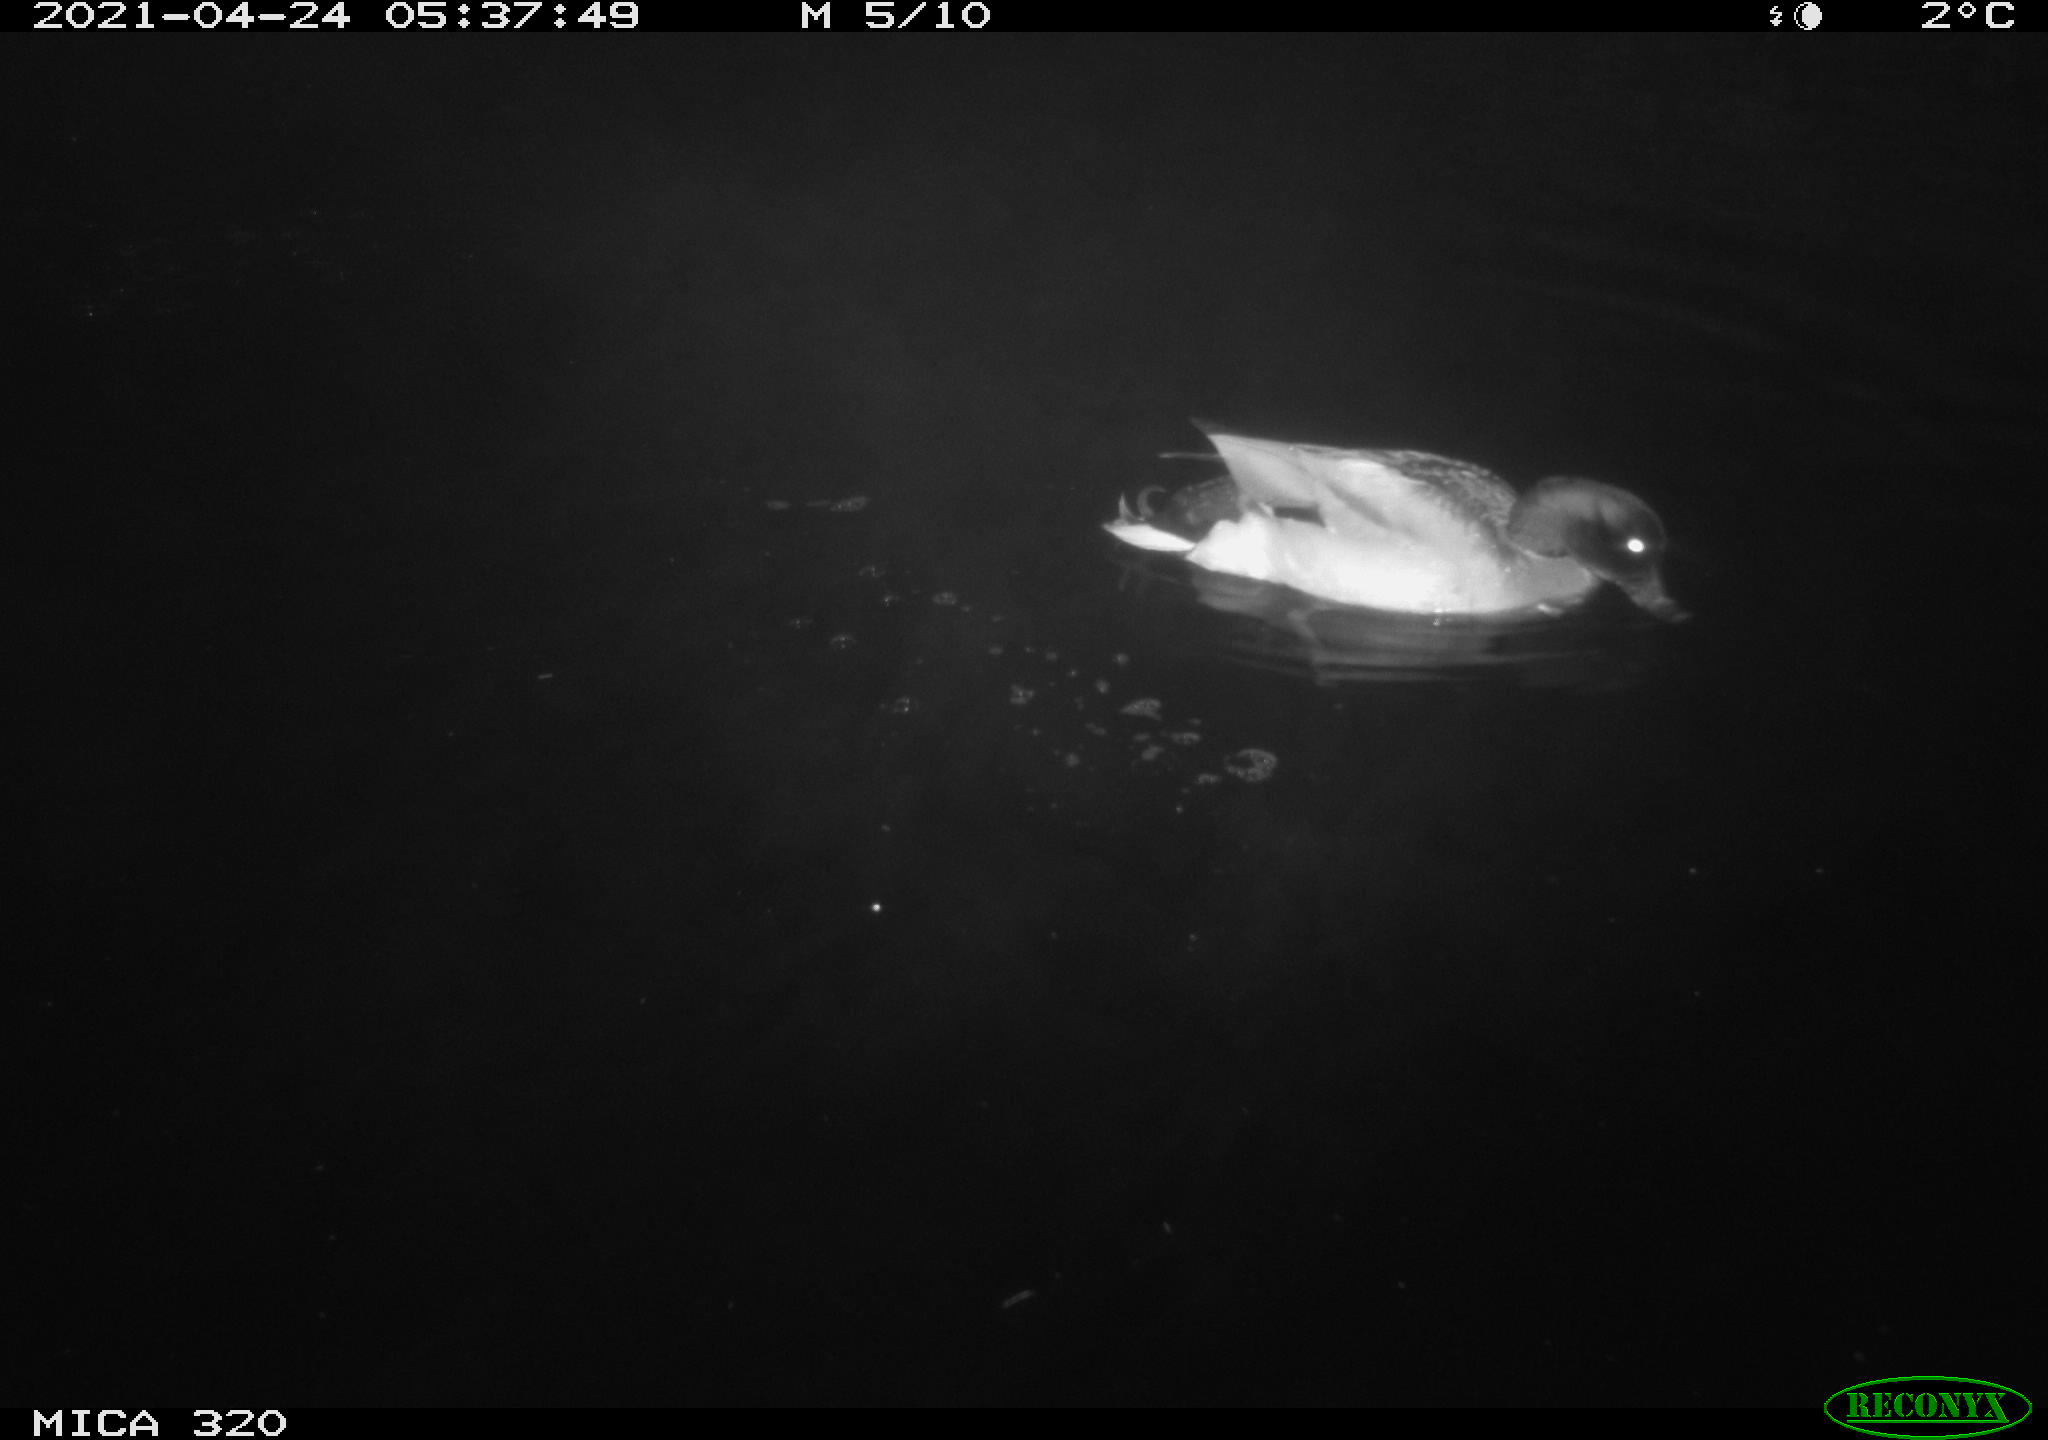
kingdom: Animalia
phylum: Chordata
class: Aves
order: Anseriformes
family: Anatidae
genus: Anas
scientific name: Anas platyrhynchos
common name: Mallard
